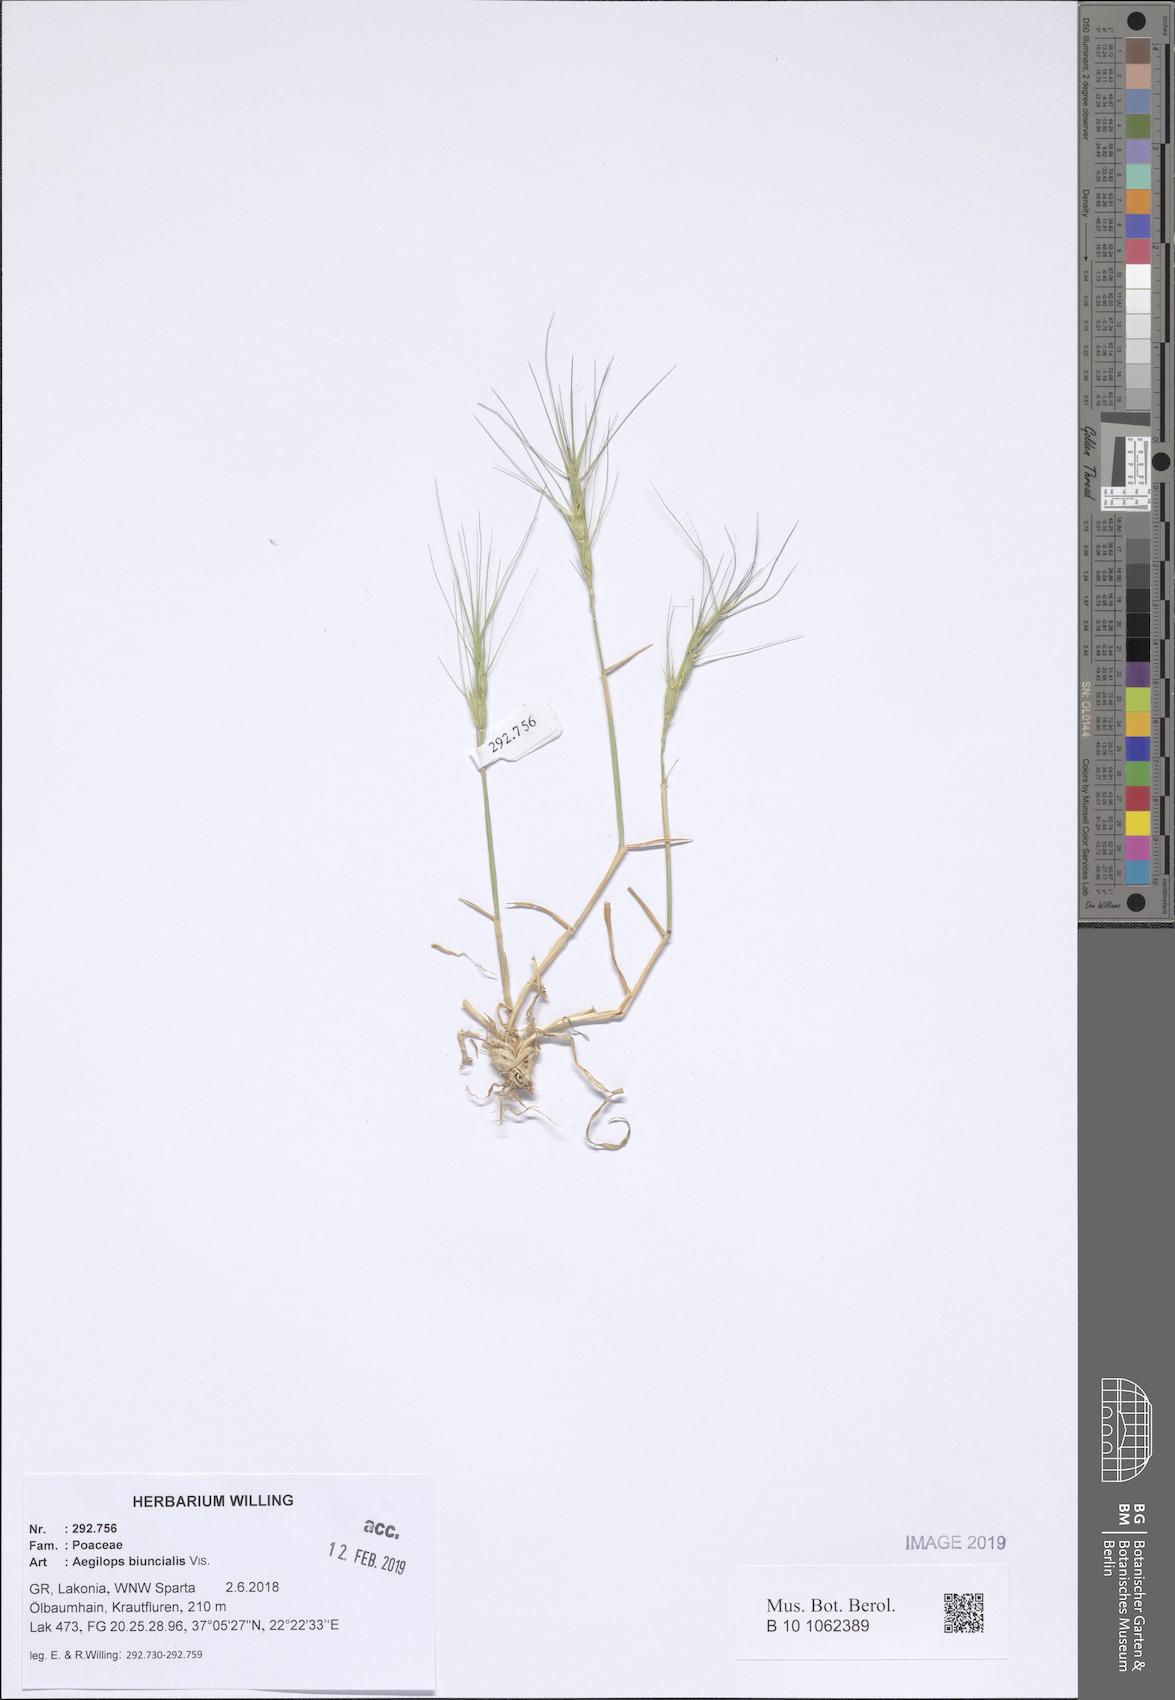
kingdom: Plantae
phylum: Tracheophyta
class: Liliopsida
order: Poales
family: Poaceae
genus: Aegilops
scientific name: Aegilops biuncialis
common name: Mediterranean aegilops
